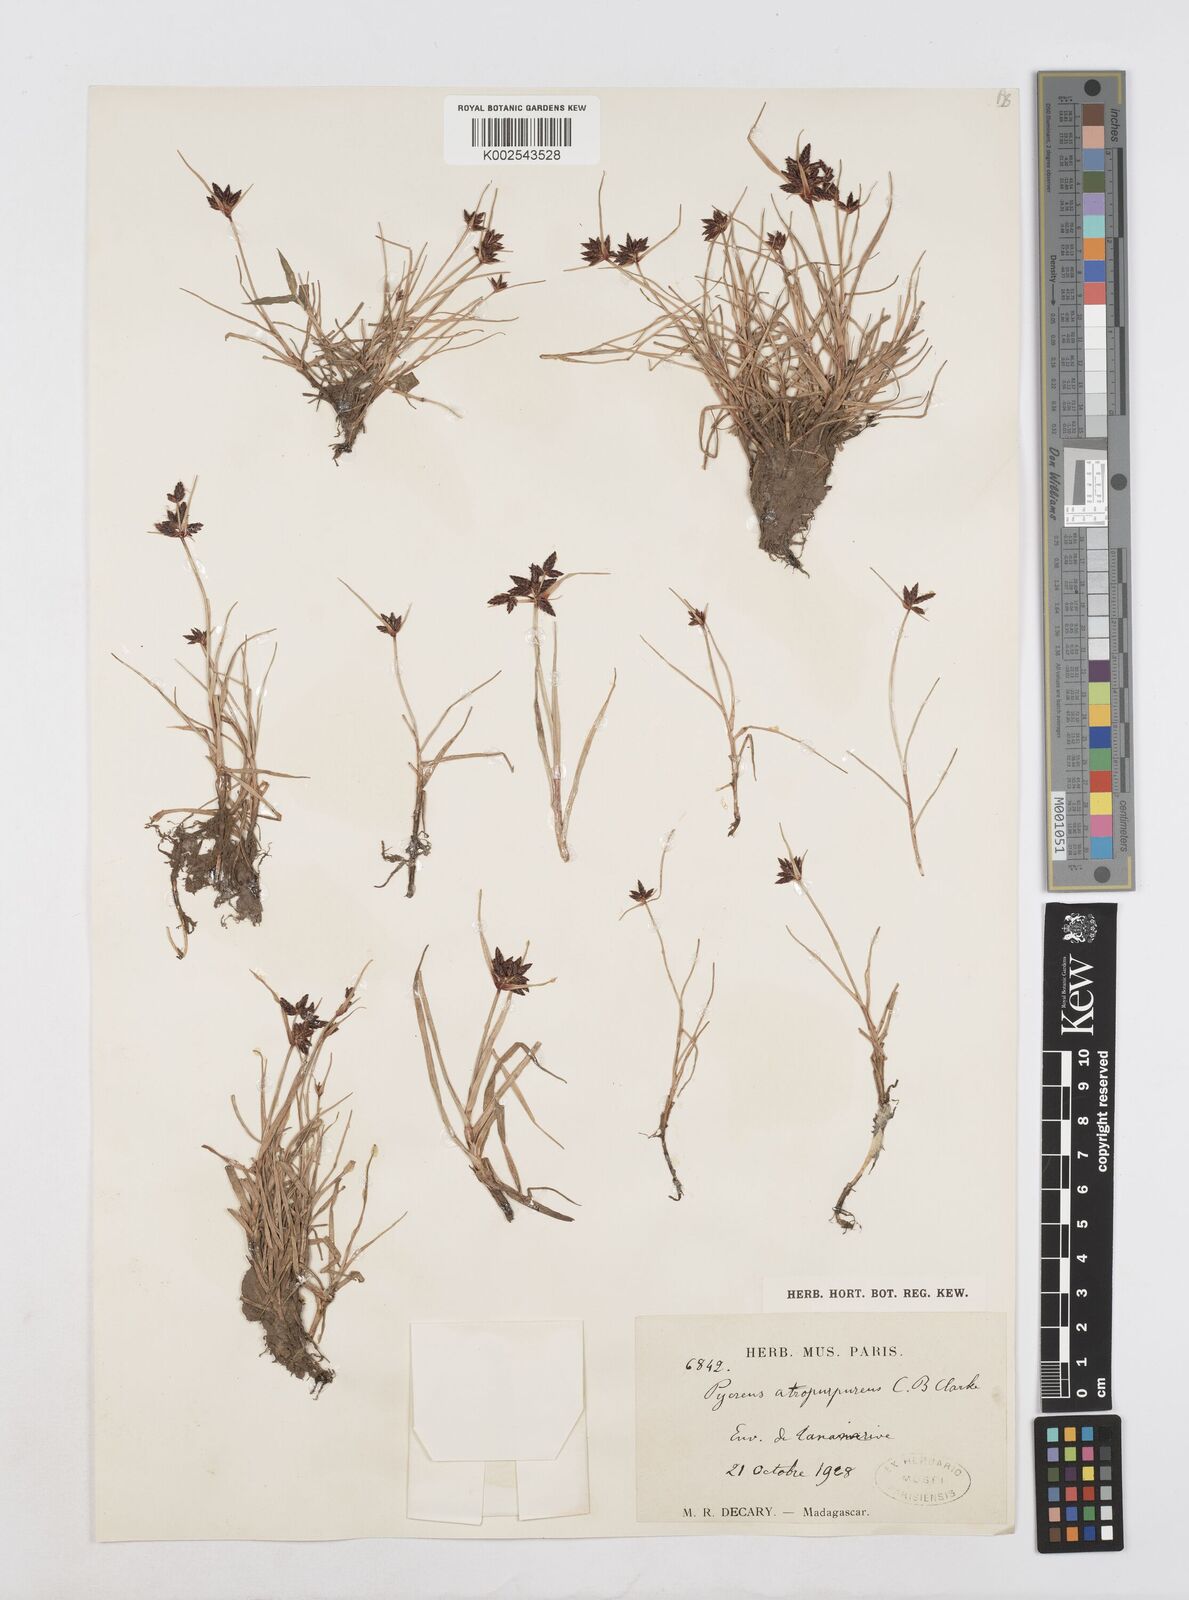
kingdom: Plantae
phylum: Tracheophyta
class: Liliopsida
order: Poales
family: Cyperaceae
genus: Cyperus
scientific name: Cyperus chermezonii
